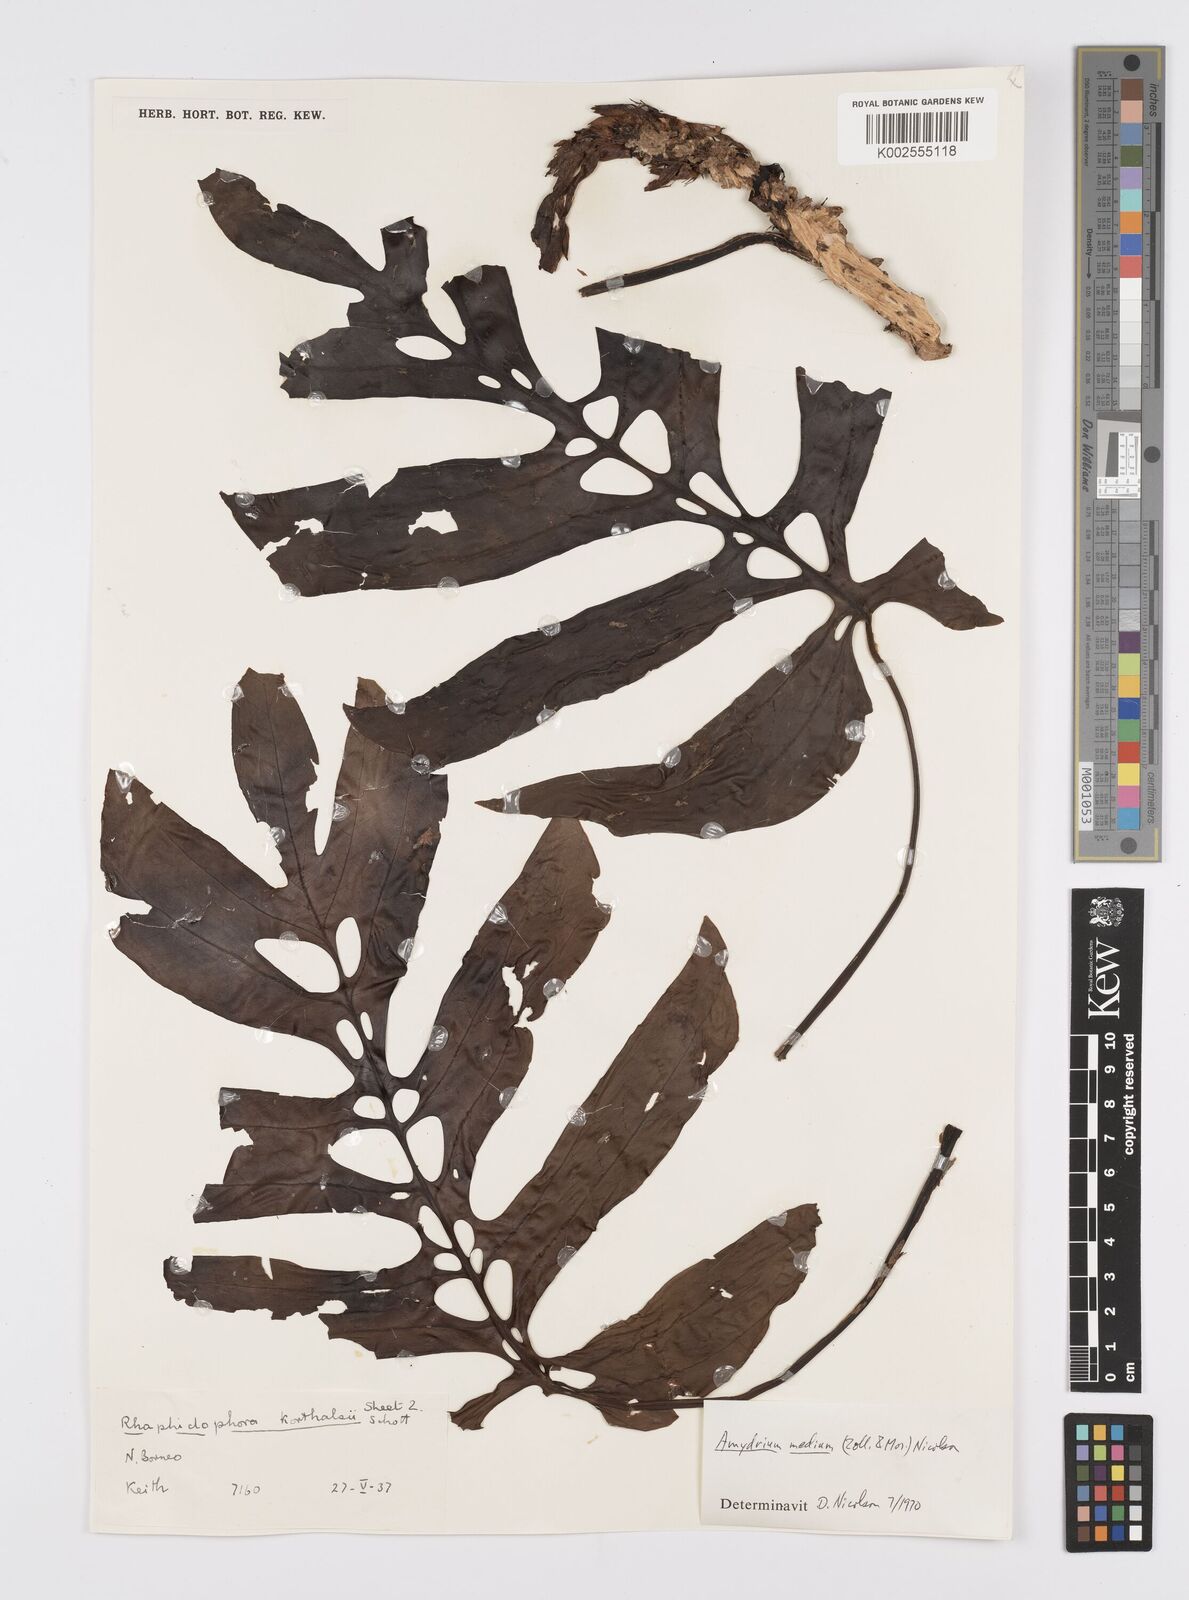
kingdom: Plantae
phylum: Tracheophyta
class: Liliopsida
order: Alismatales
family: Araceae
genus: Amydrium
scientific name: Amydrium medium
